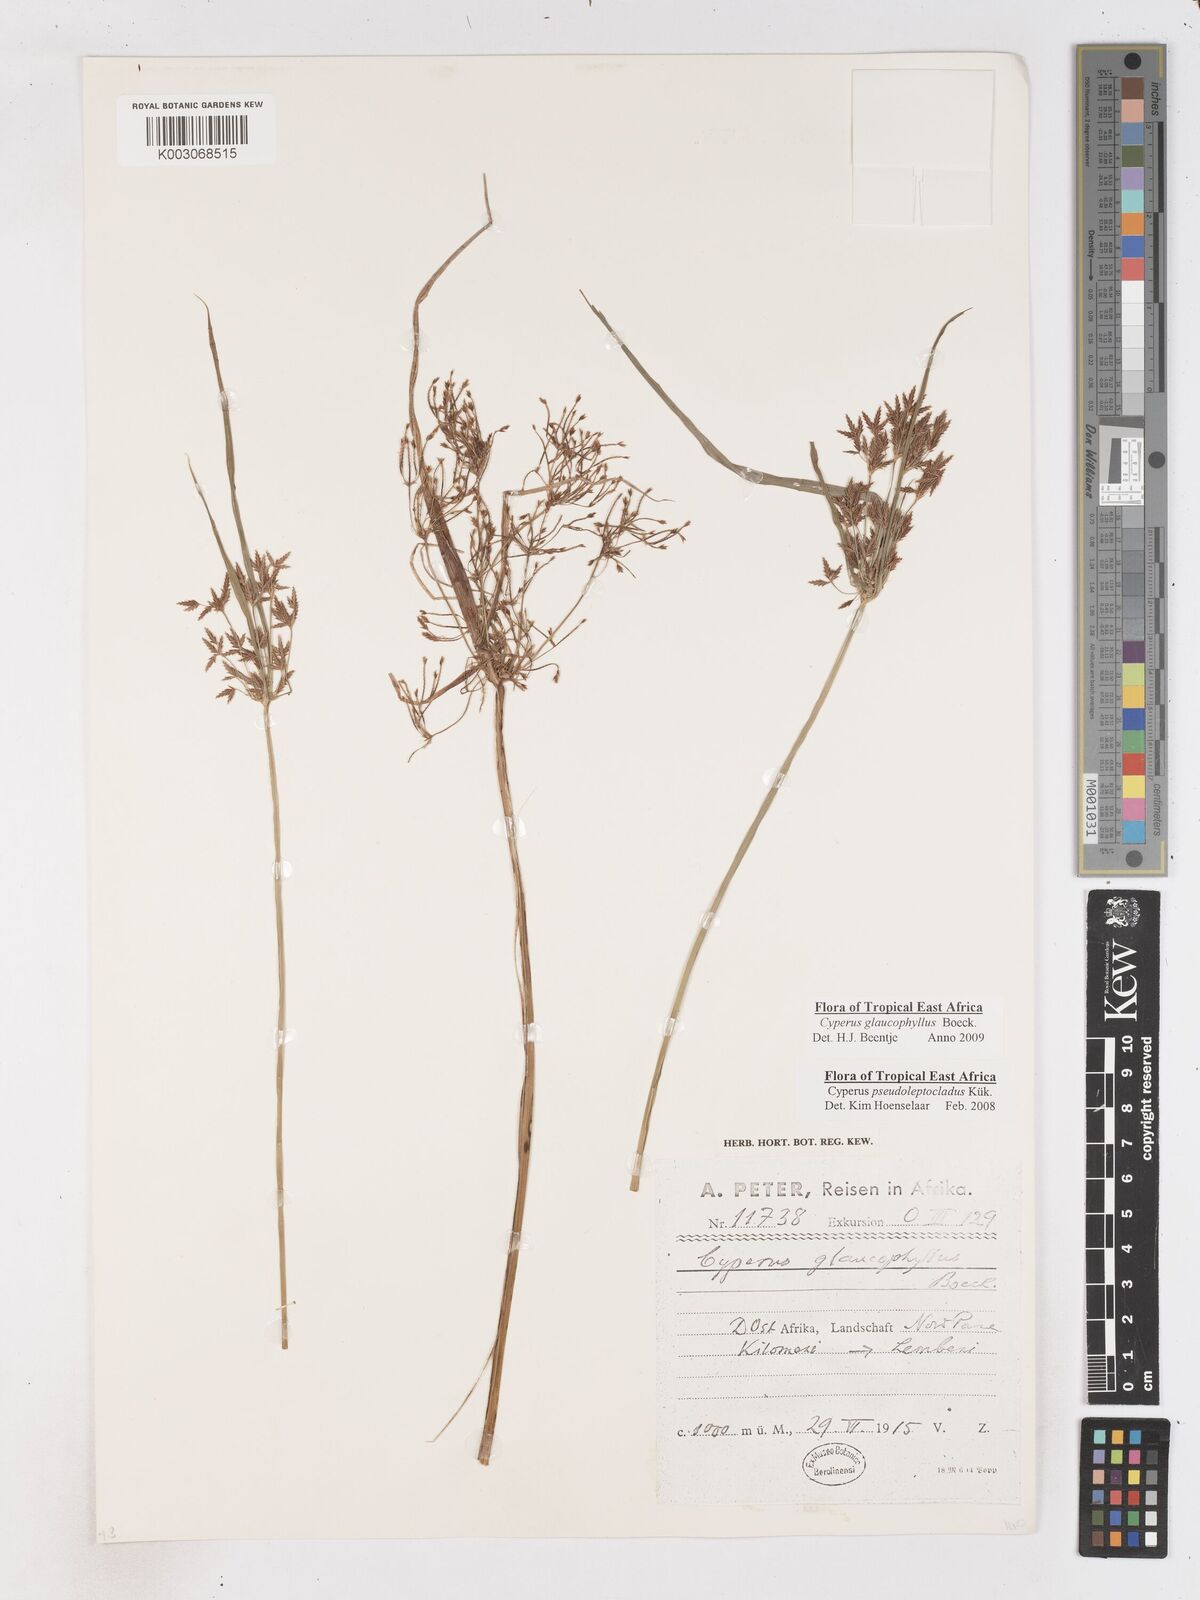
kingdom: Plantae
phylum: Tracheophyta
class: Liliopsida
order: Poales
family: Cyperaceae
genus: Cyperus
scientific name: Cyperus glaucophyllus
